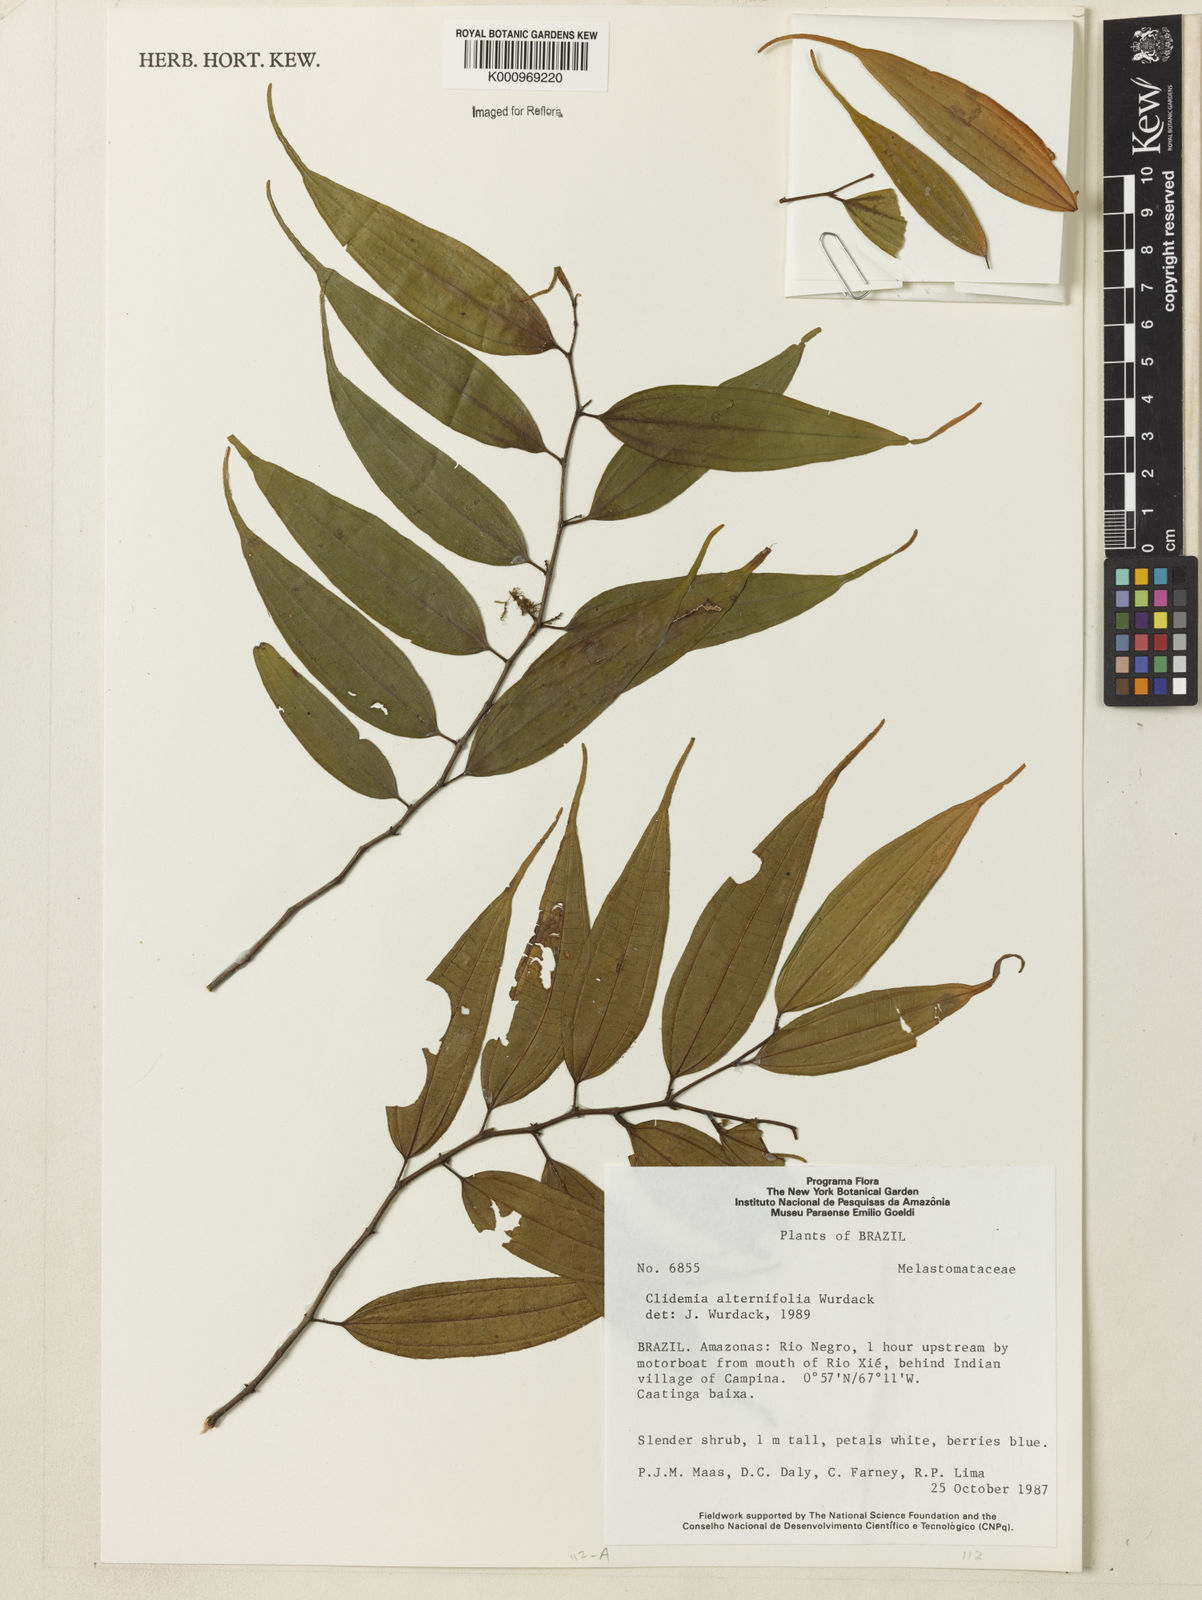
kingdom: Plantae
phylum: Tracheophyta
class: Magnoliopsida
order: Myrtales
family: Melastomataceae
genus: Miconia
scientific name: Miconia alternilamina
